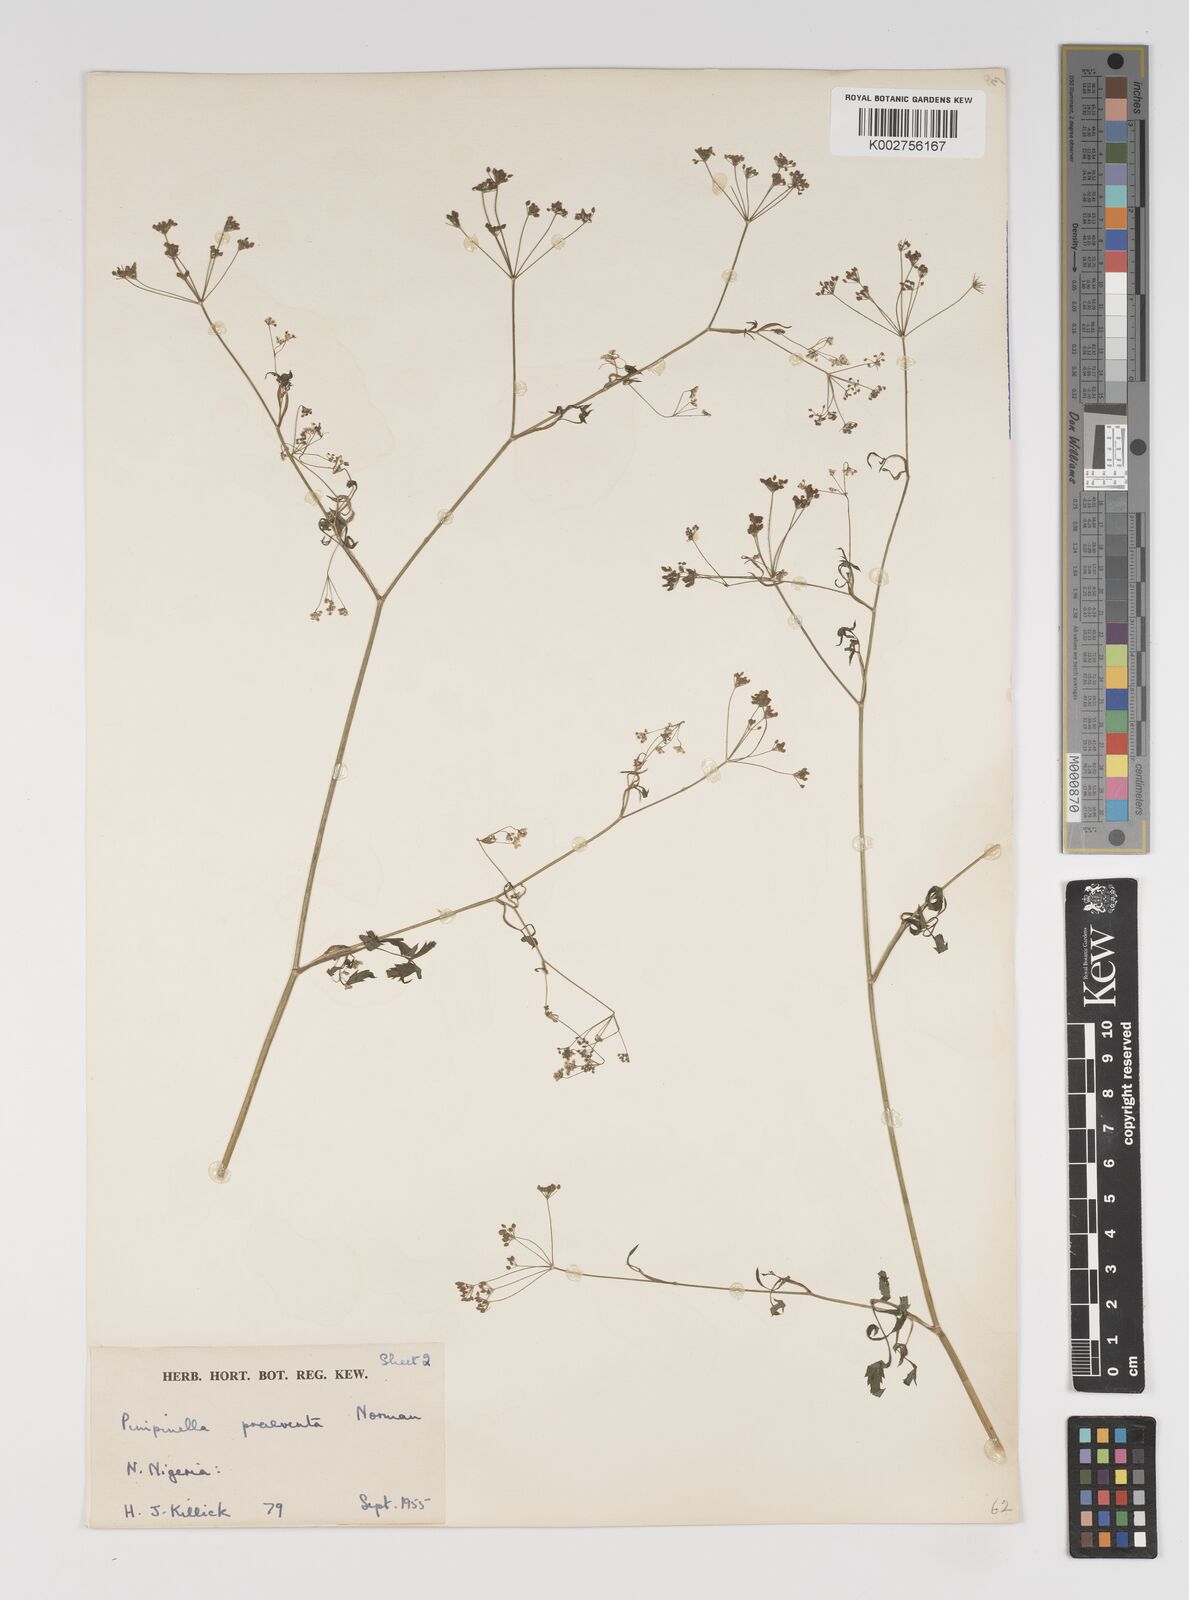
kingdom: Plantae
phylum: Tracheophyta
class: Magnoliopsida
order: Apiales
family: Apiaceae
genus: Pimpinella
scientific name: Pimpinella hirtella
